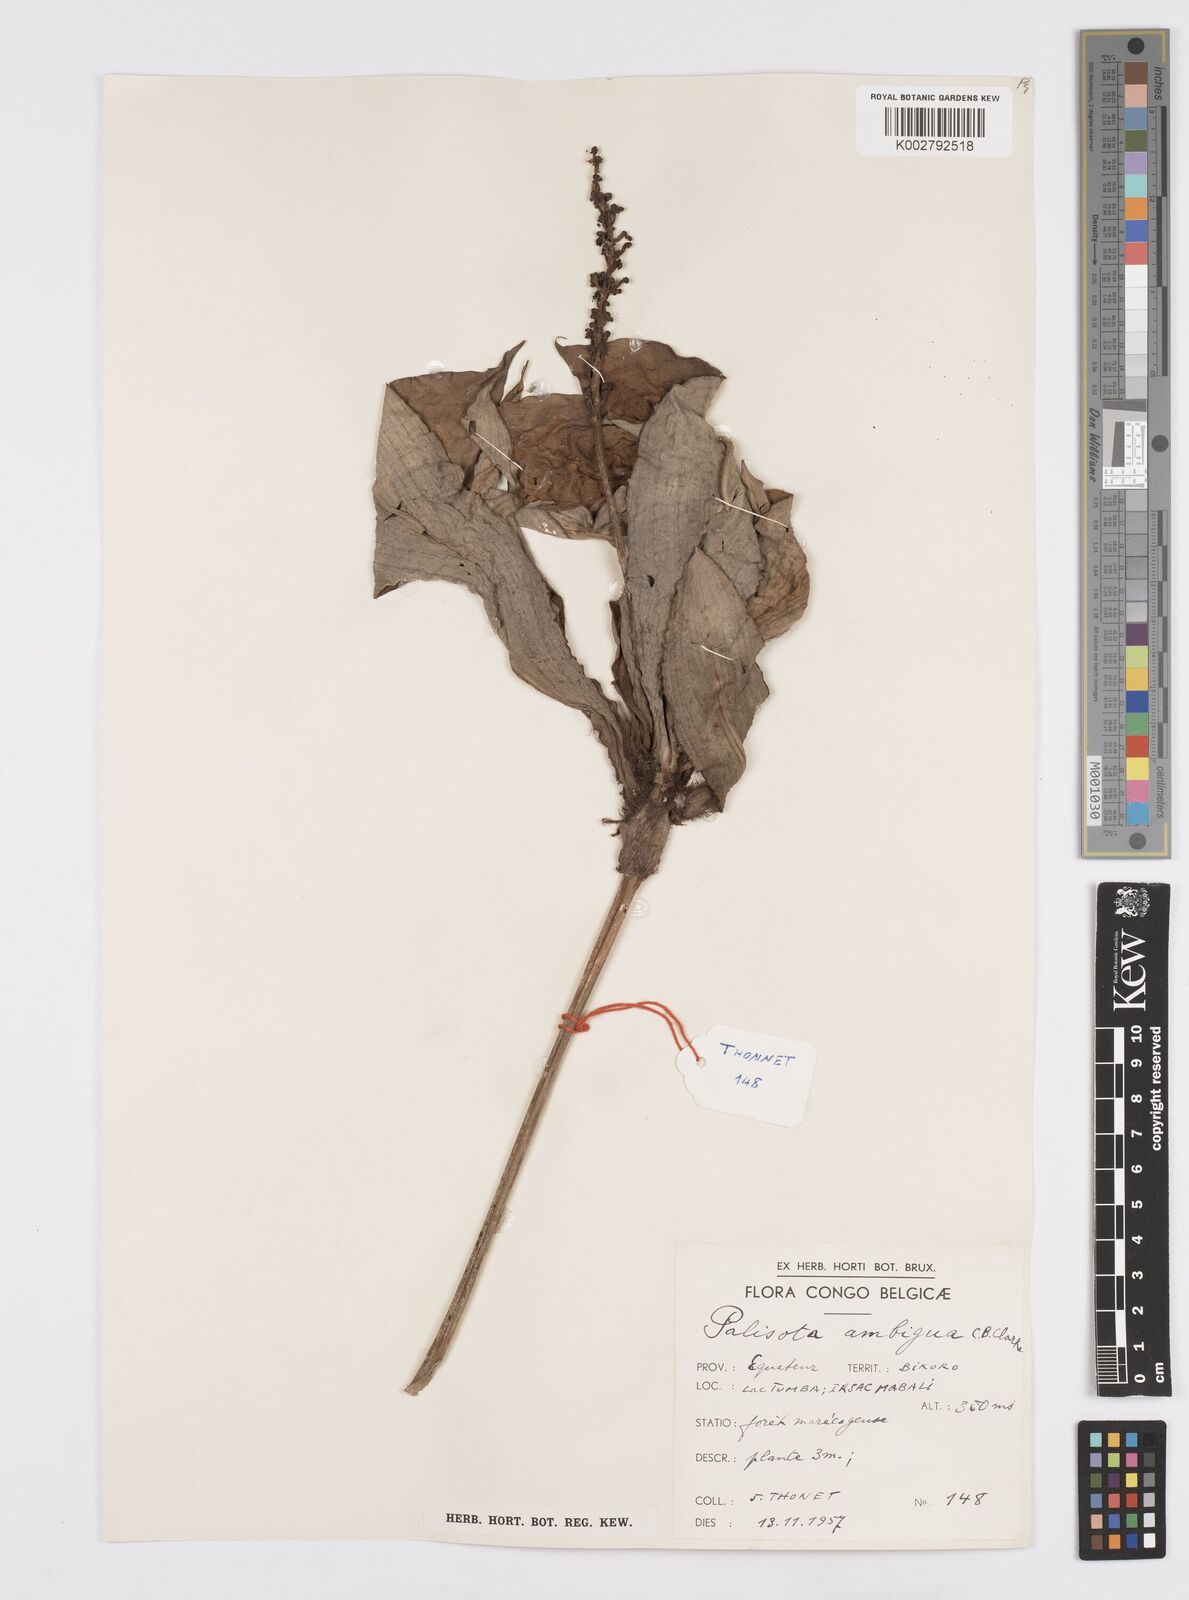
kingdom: Plantae
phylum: Tracheophyta
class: Liliopsida
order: Commelinales
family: Commelinaceae
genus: Palisota
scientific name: Palisota ambigua
